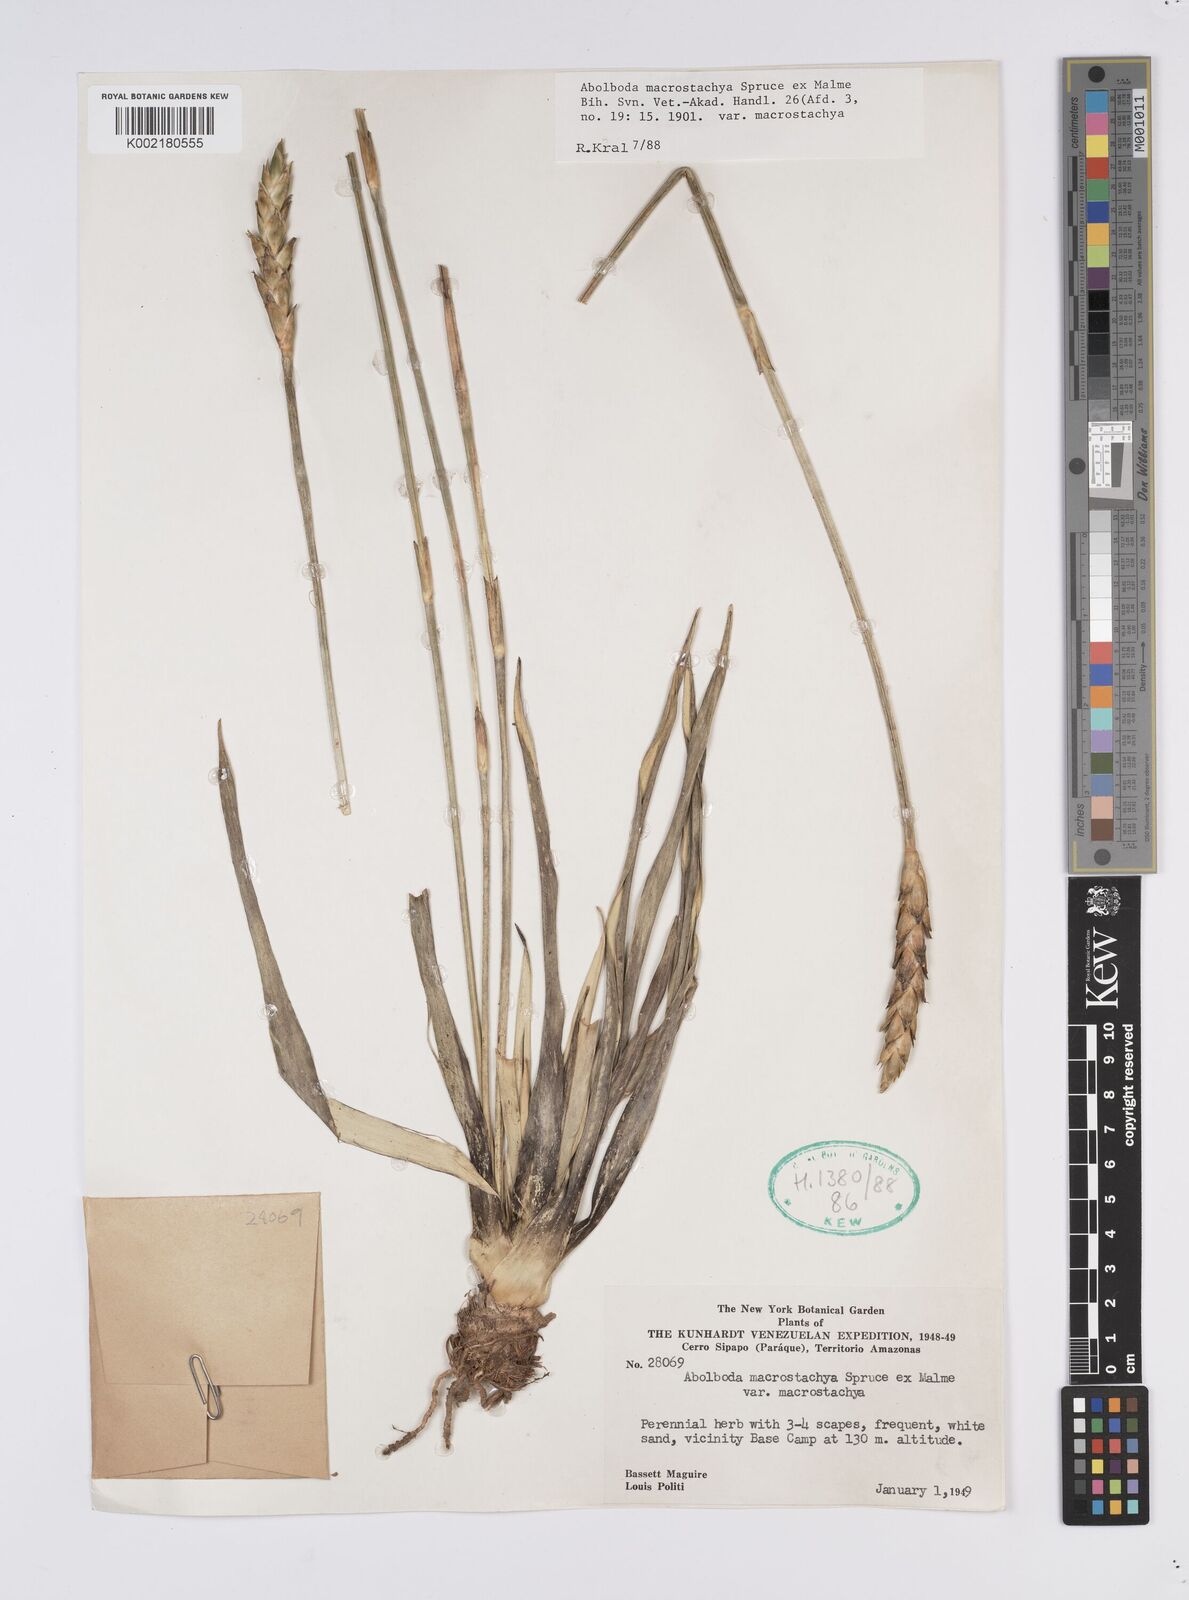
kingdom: Plantae
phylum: Tracheophyta
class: Liliopsida
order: Poales
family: Xyridaceae
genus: Abolboda
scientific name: Abolboda macrostachya
